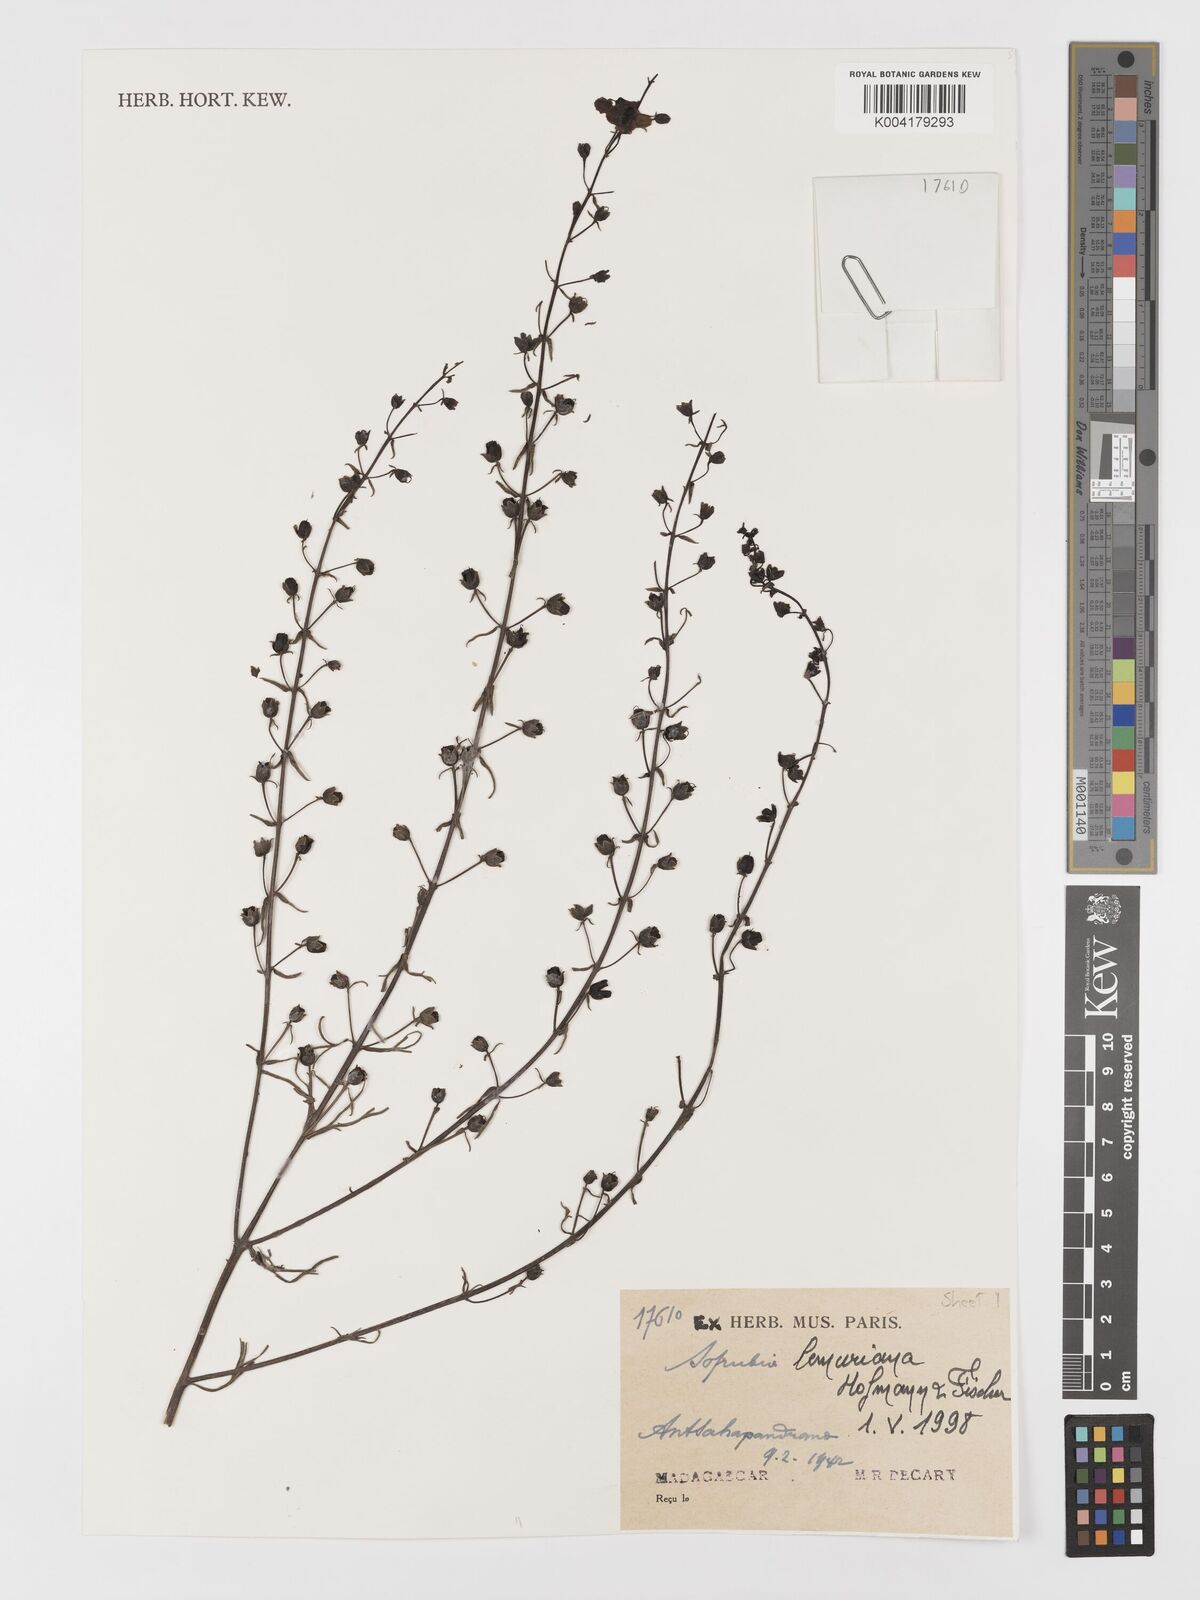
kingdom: Plantae
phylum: Tracheophyta
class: Magnoliopsida
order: Lamiales
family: Orobanchaceae
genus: Sopubia
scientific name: Sopubia lemuriana
